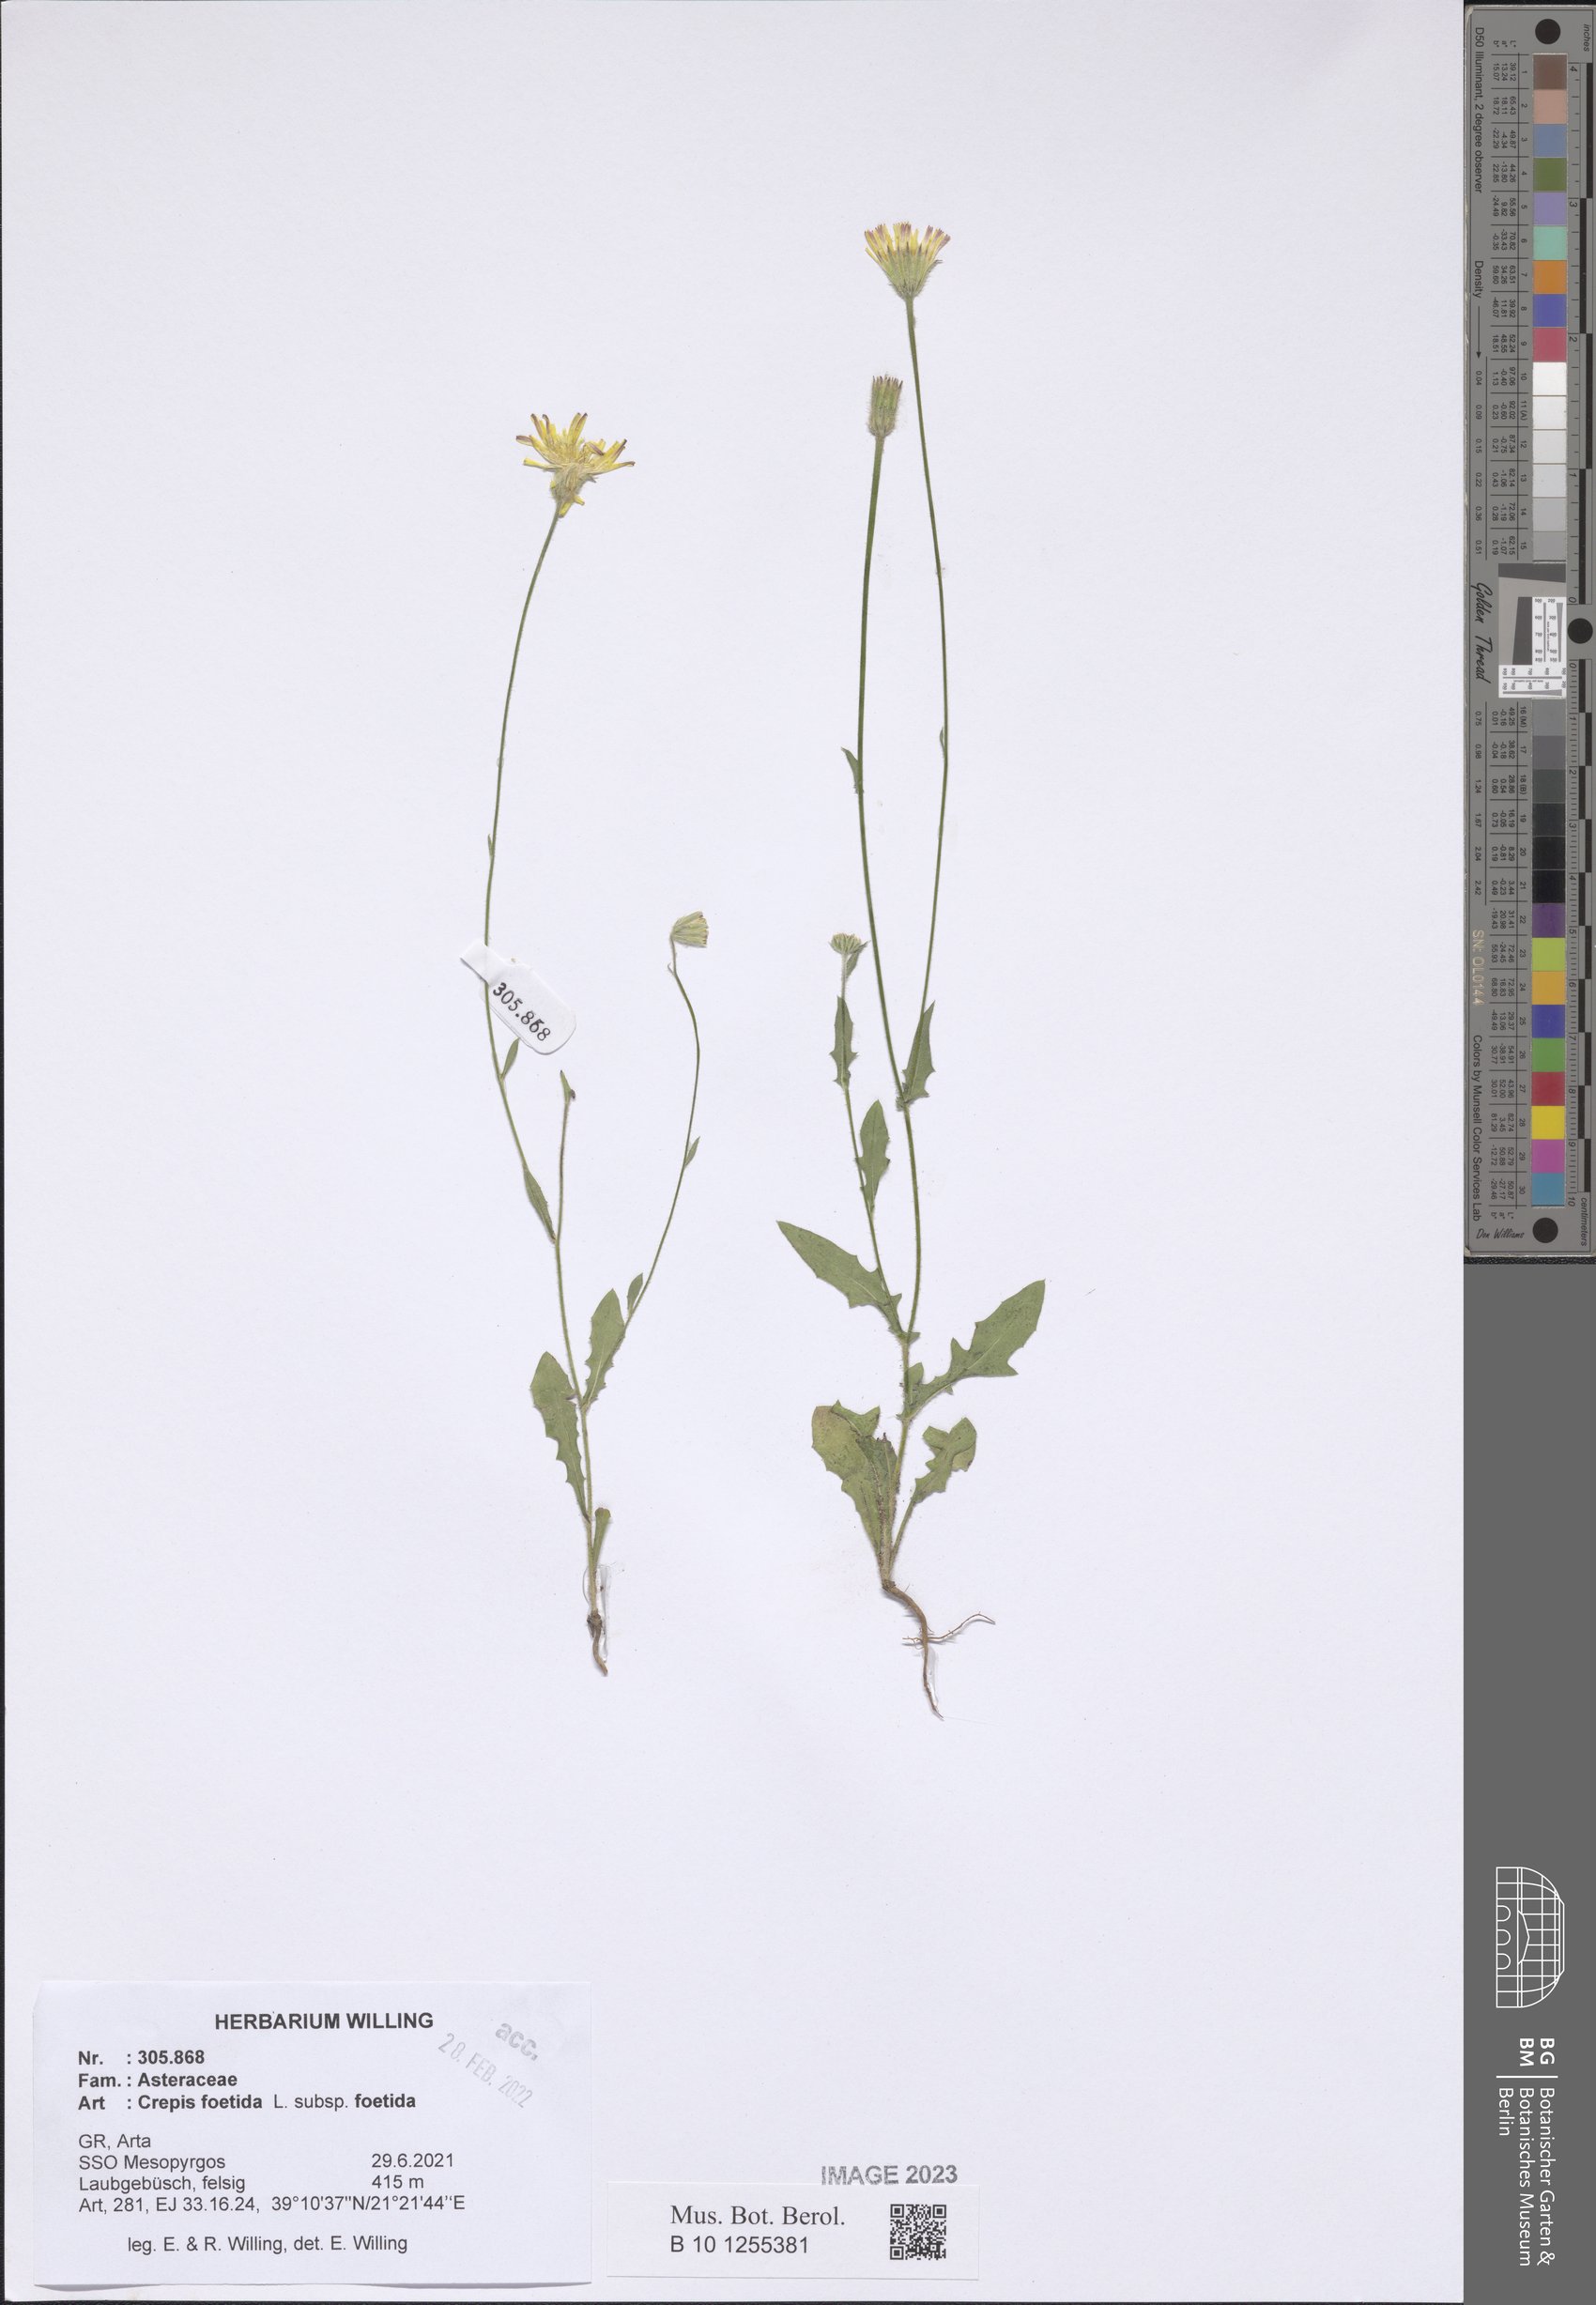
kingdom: Plantae
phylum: Tracheophyta
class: Magnoliopsida
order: Asterales
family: Asteraceae
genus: Crepis
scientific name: Crepis foetida
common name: Stinking hawk's-beard
